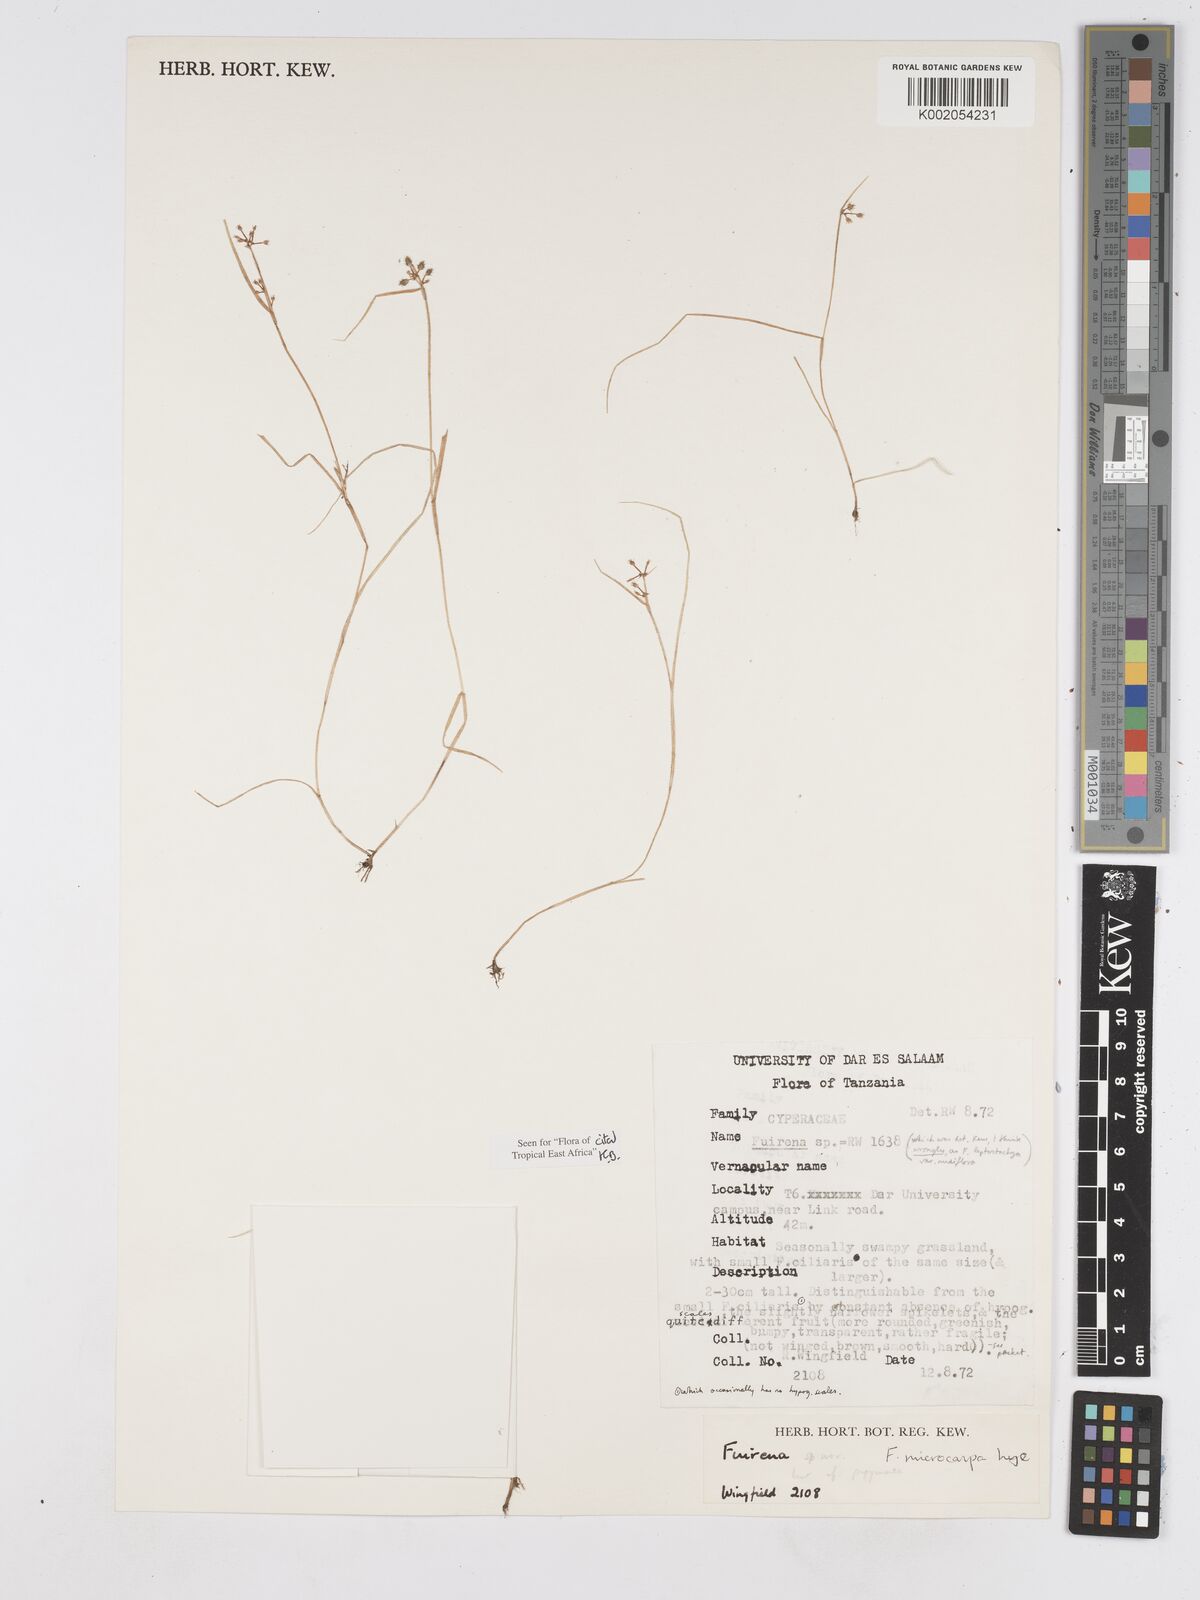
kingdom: Plantae
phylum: Tracheophyta
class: Liliopsida
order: Poales
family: Cyperaceae
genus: Fuirena
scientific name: Fuirena microcarpa
